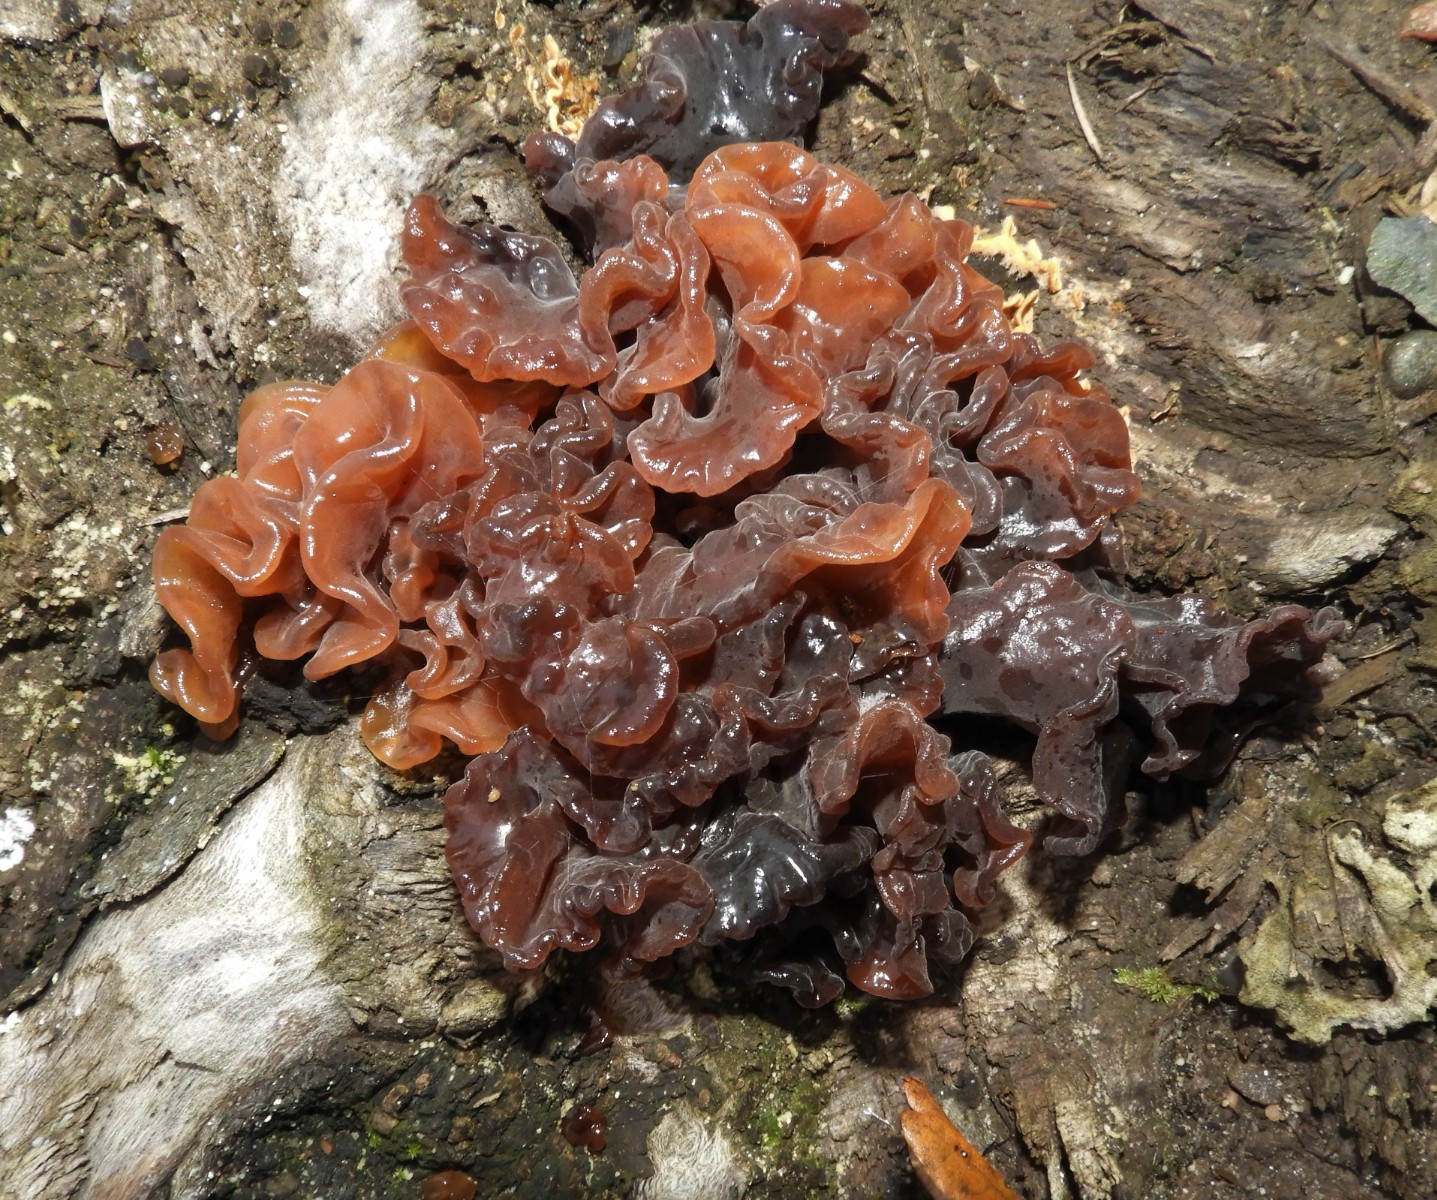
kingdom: Fungi
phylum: Basidiomycota
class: Tremellomycetes
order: Tremellales
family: Tremellaceae
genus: Phaeotremella
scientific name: Phaeotremella foliacea
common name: brun bævresvamp
